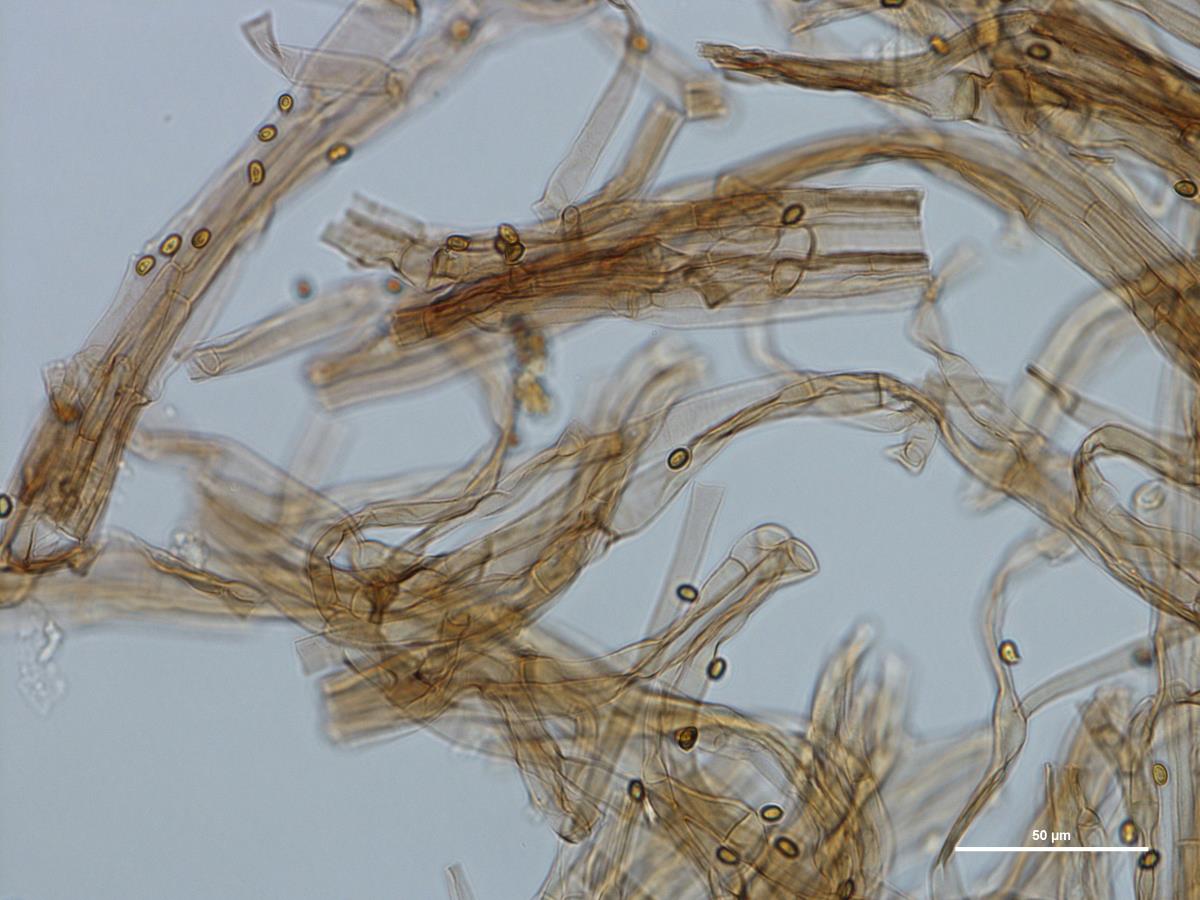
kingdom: Fungi
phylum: Basidiomycota
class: Agaricomycetes
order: Agaricales
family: Tricholomataceae
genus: Phaeolepiota
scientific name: Phaeolepiota
